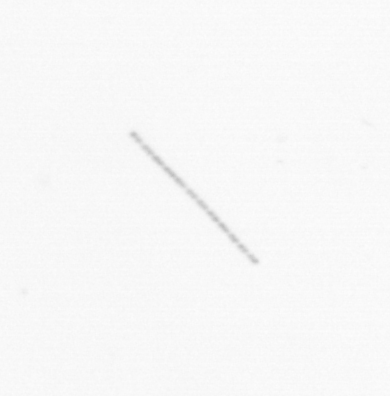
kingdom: Chromista
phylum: Ochrophyta
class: Bacillariophyceae
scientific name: Bacillariophyceae
